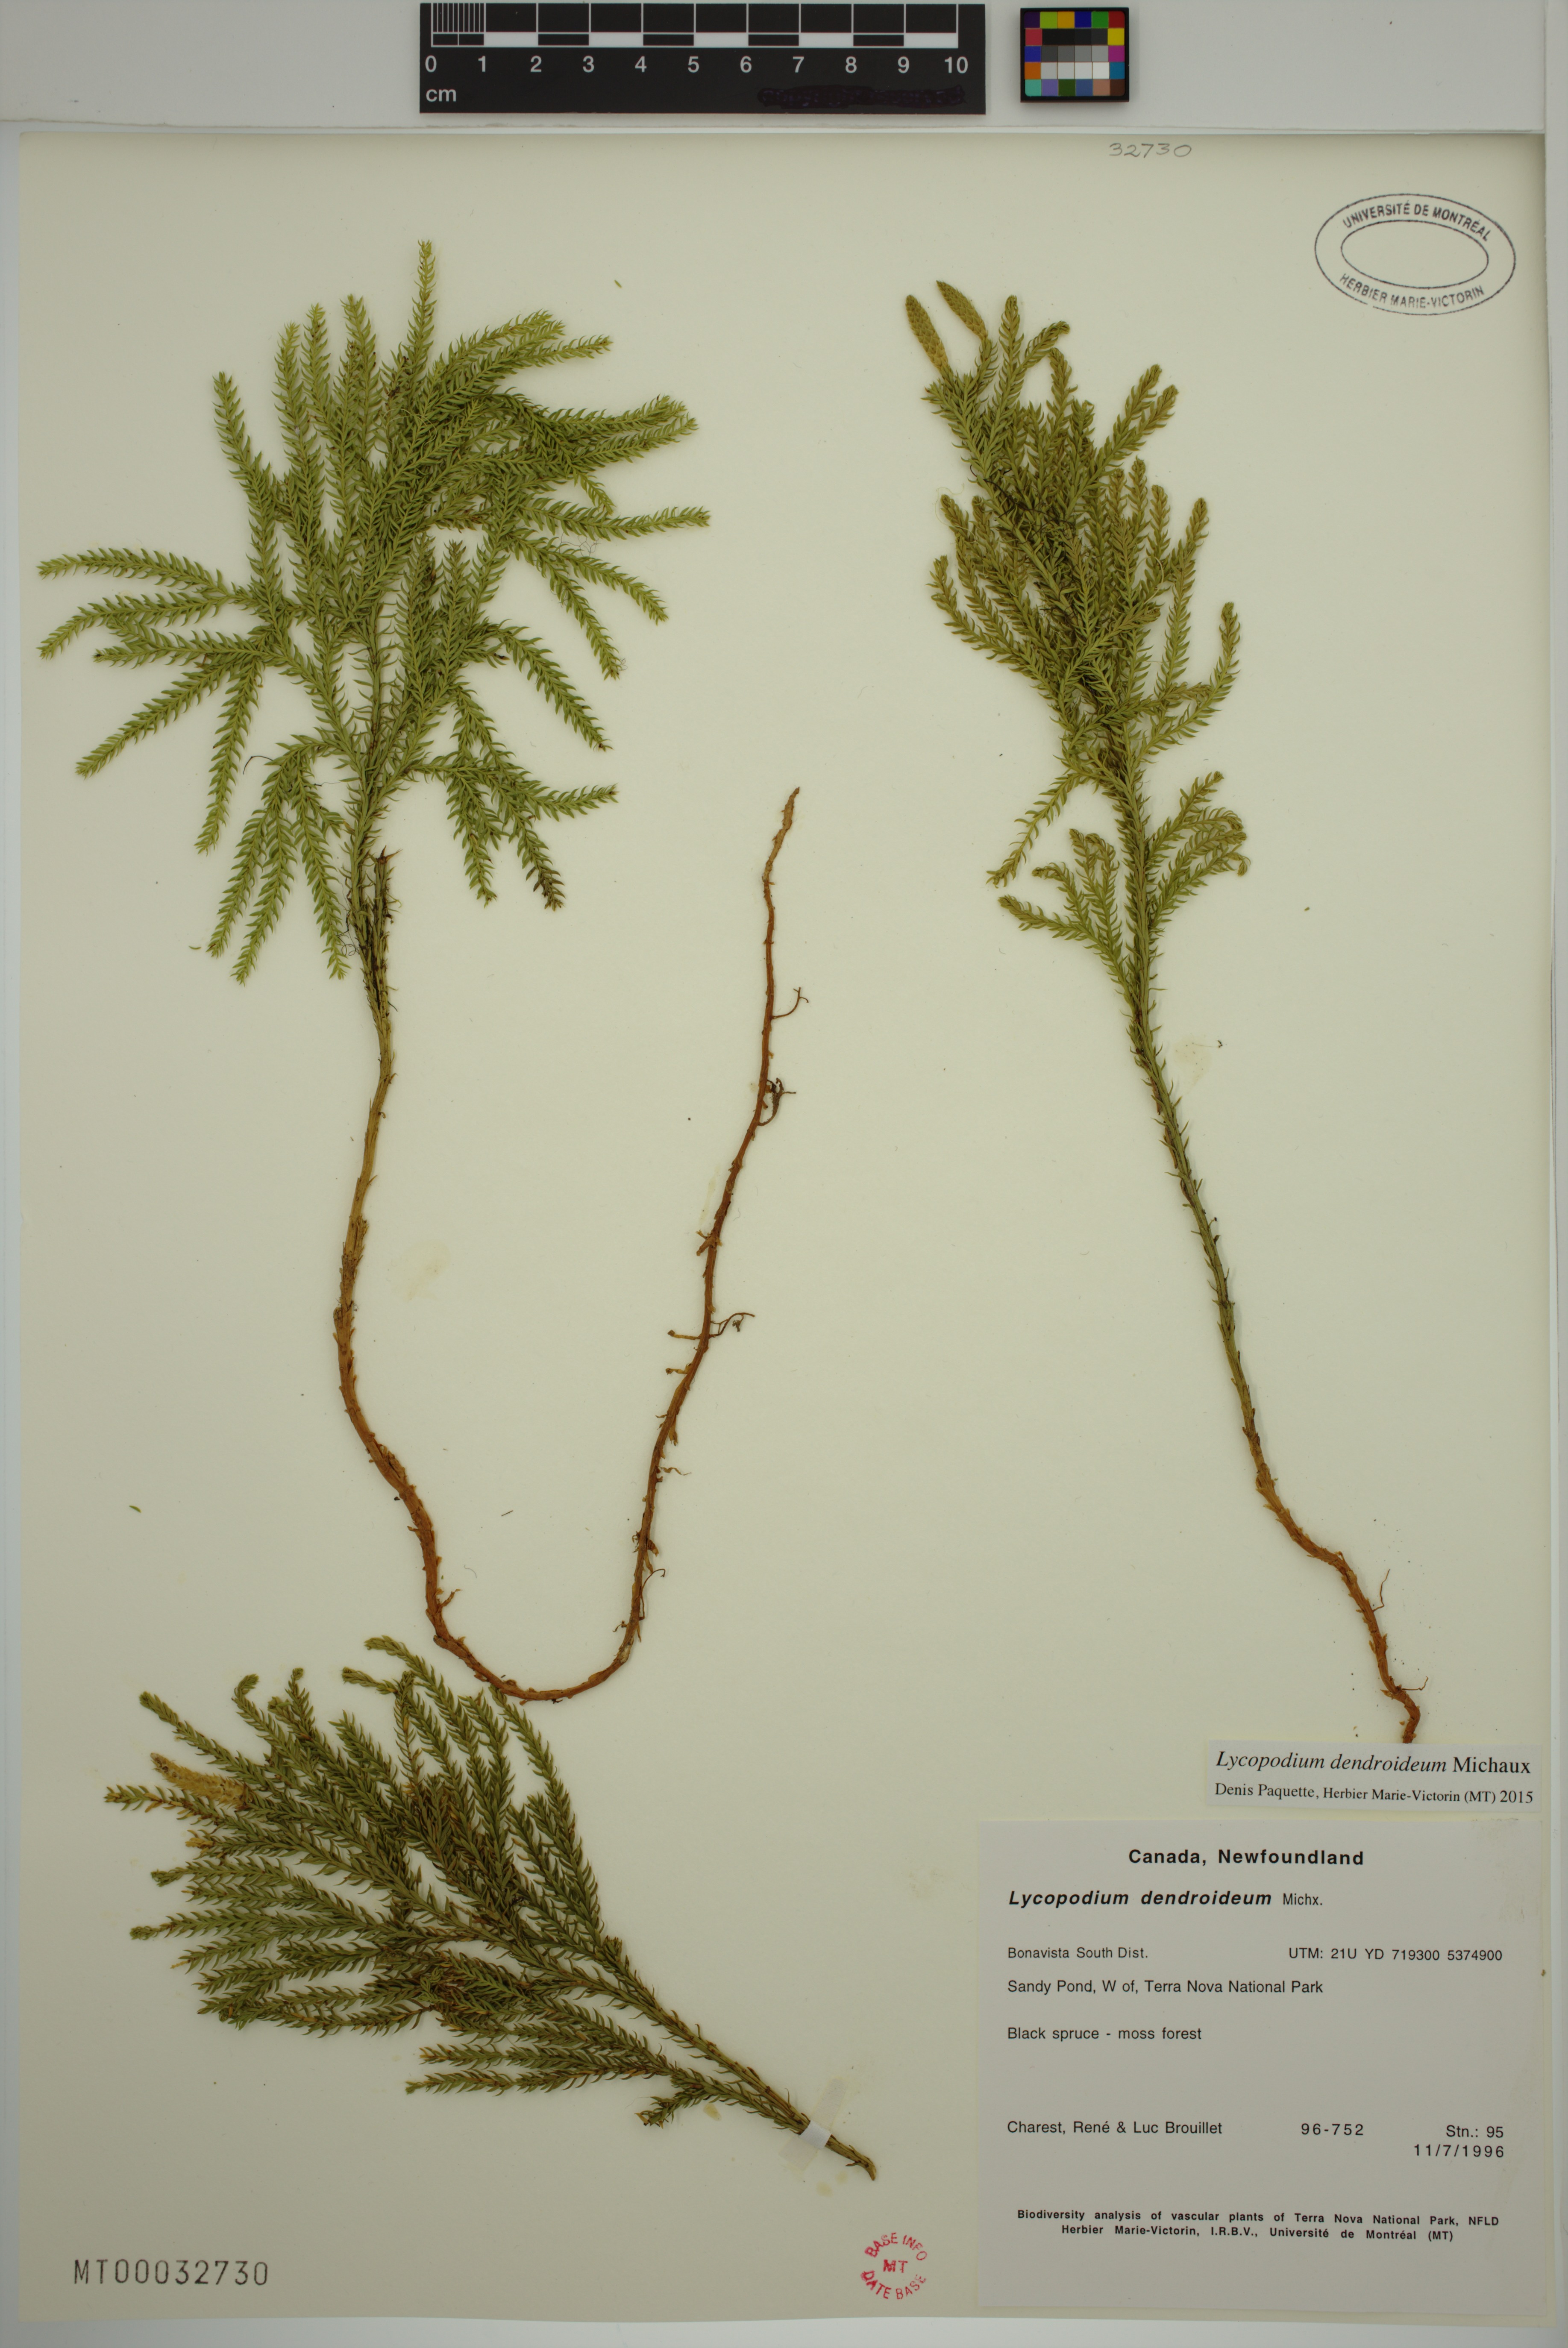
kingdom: Plantae
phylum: Tracheophyta
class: Lycopodiopsida
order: Lycopodiales
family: Lycopodiaceae
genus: Dendrolycopodium
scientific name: Dendrolycopodium dendroideum
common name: Northern tree-clubmoss
